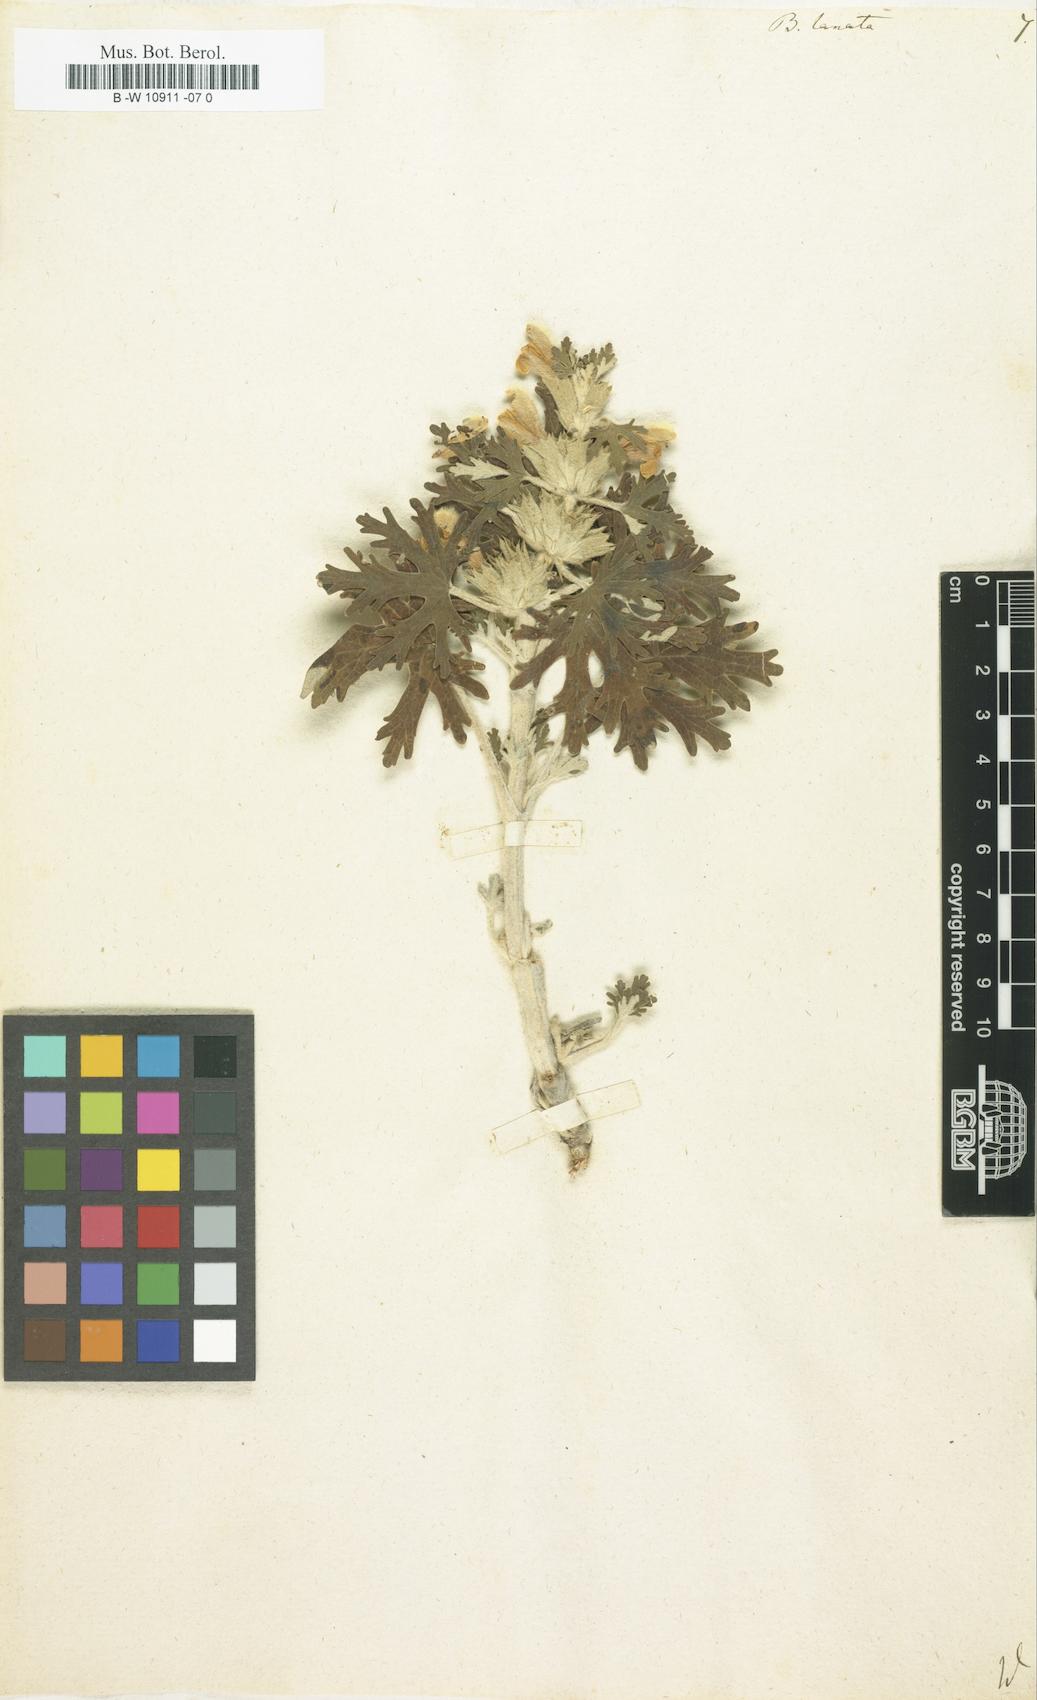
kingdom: Plantae
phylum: Tracheophyta
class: Magnoliopsida
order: Lamiales
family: Lamiaceae
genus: Ballota
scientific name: Ballota lanata
